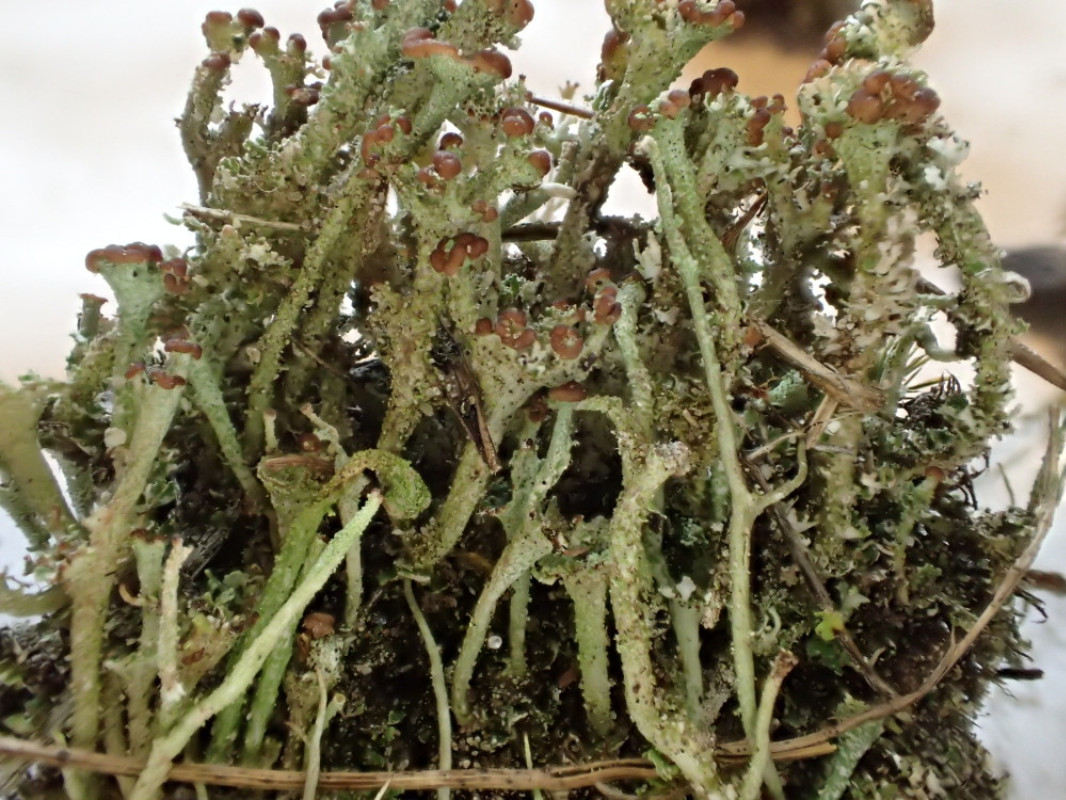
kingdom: Fungi
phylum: Ascomycota
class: Lecanoromycetes
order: Lecanorales
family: Cladoniaceae
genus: Cladonia
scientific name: Cladonia ramulosa
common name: kliddet bægerlav
